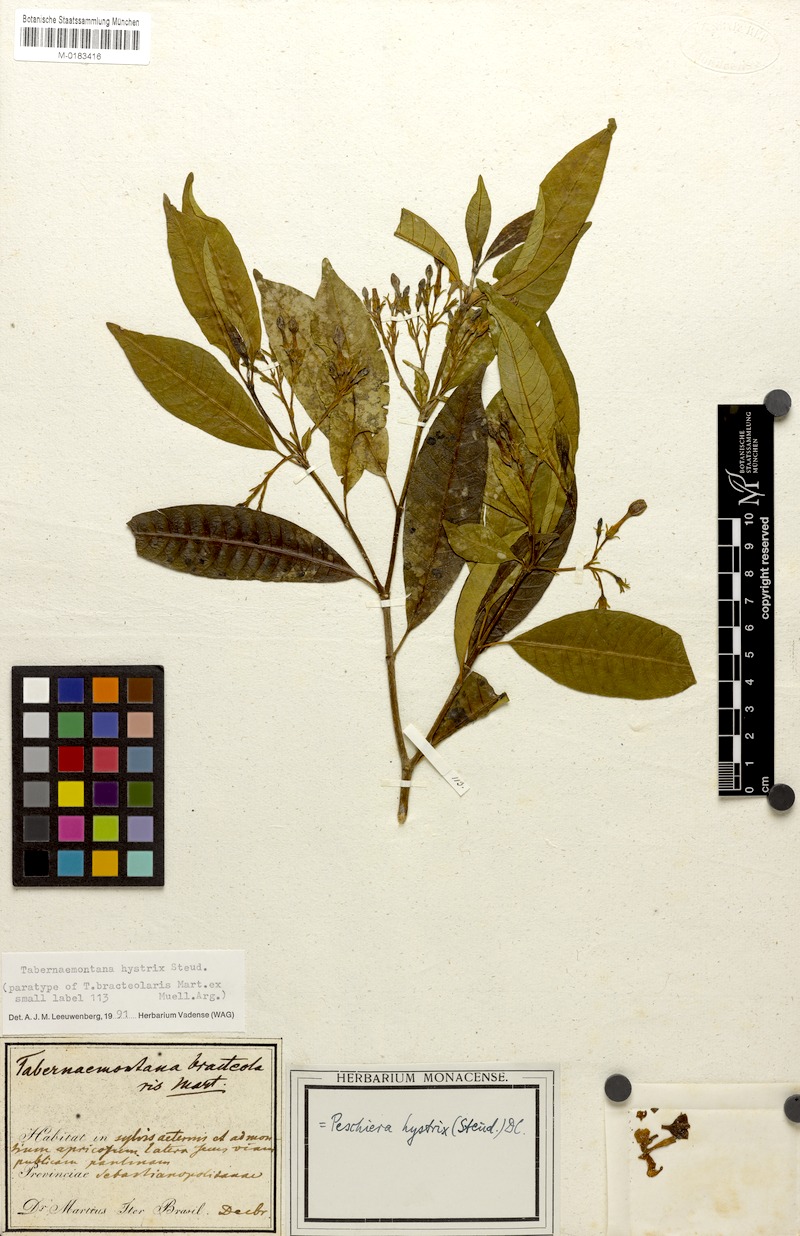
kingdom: Plantae
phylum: Tracheophyta
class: Magnoliopsida
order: Gentianales
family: Apocynaceae
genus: Tabernaemontana
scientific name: Tabernaemontana hystrix
